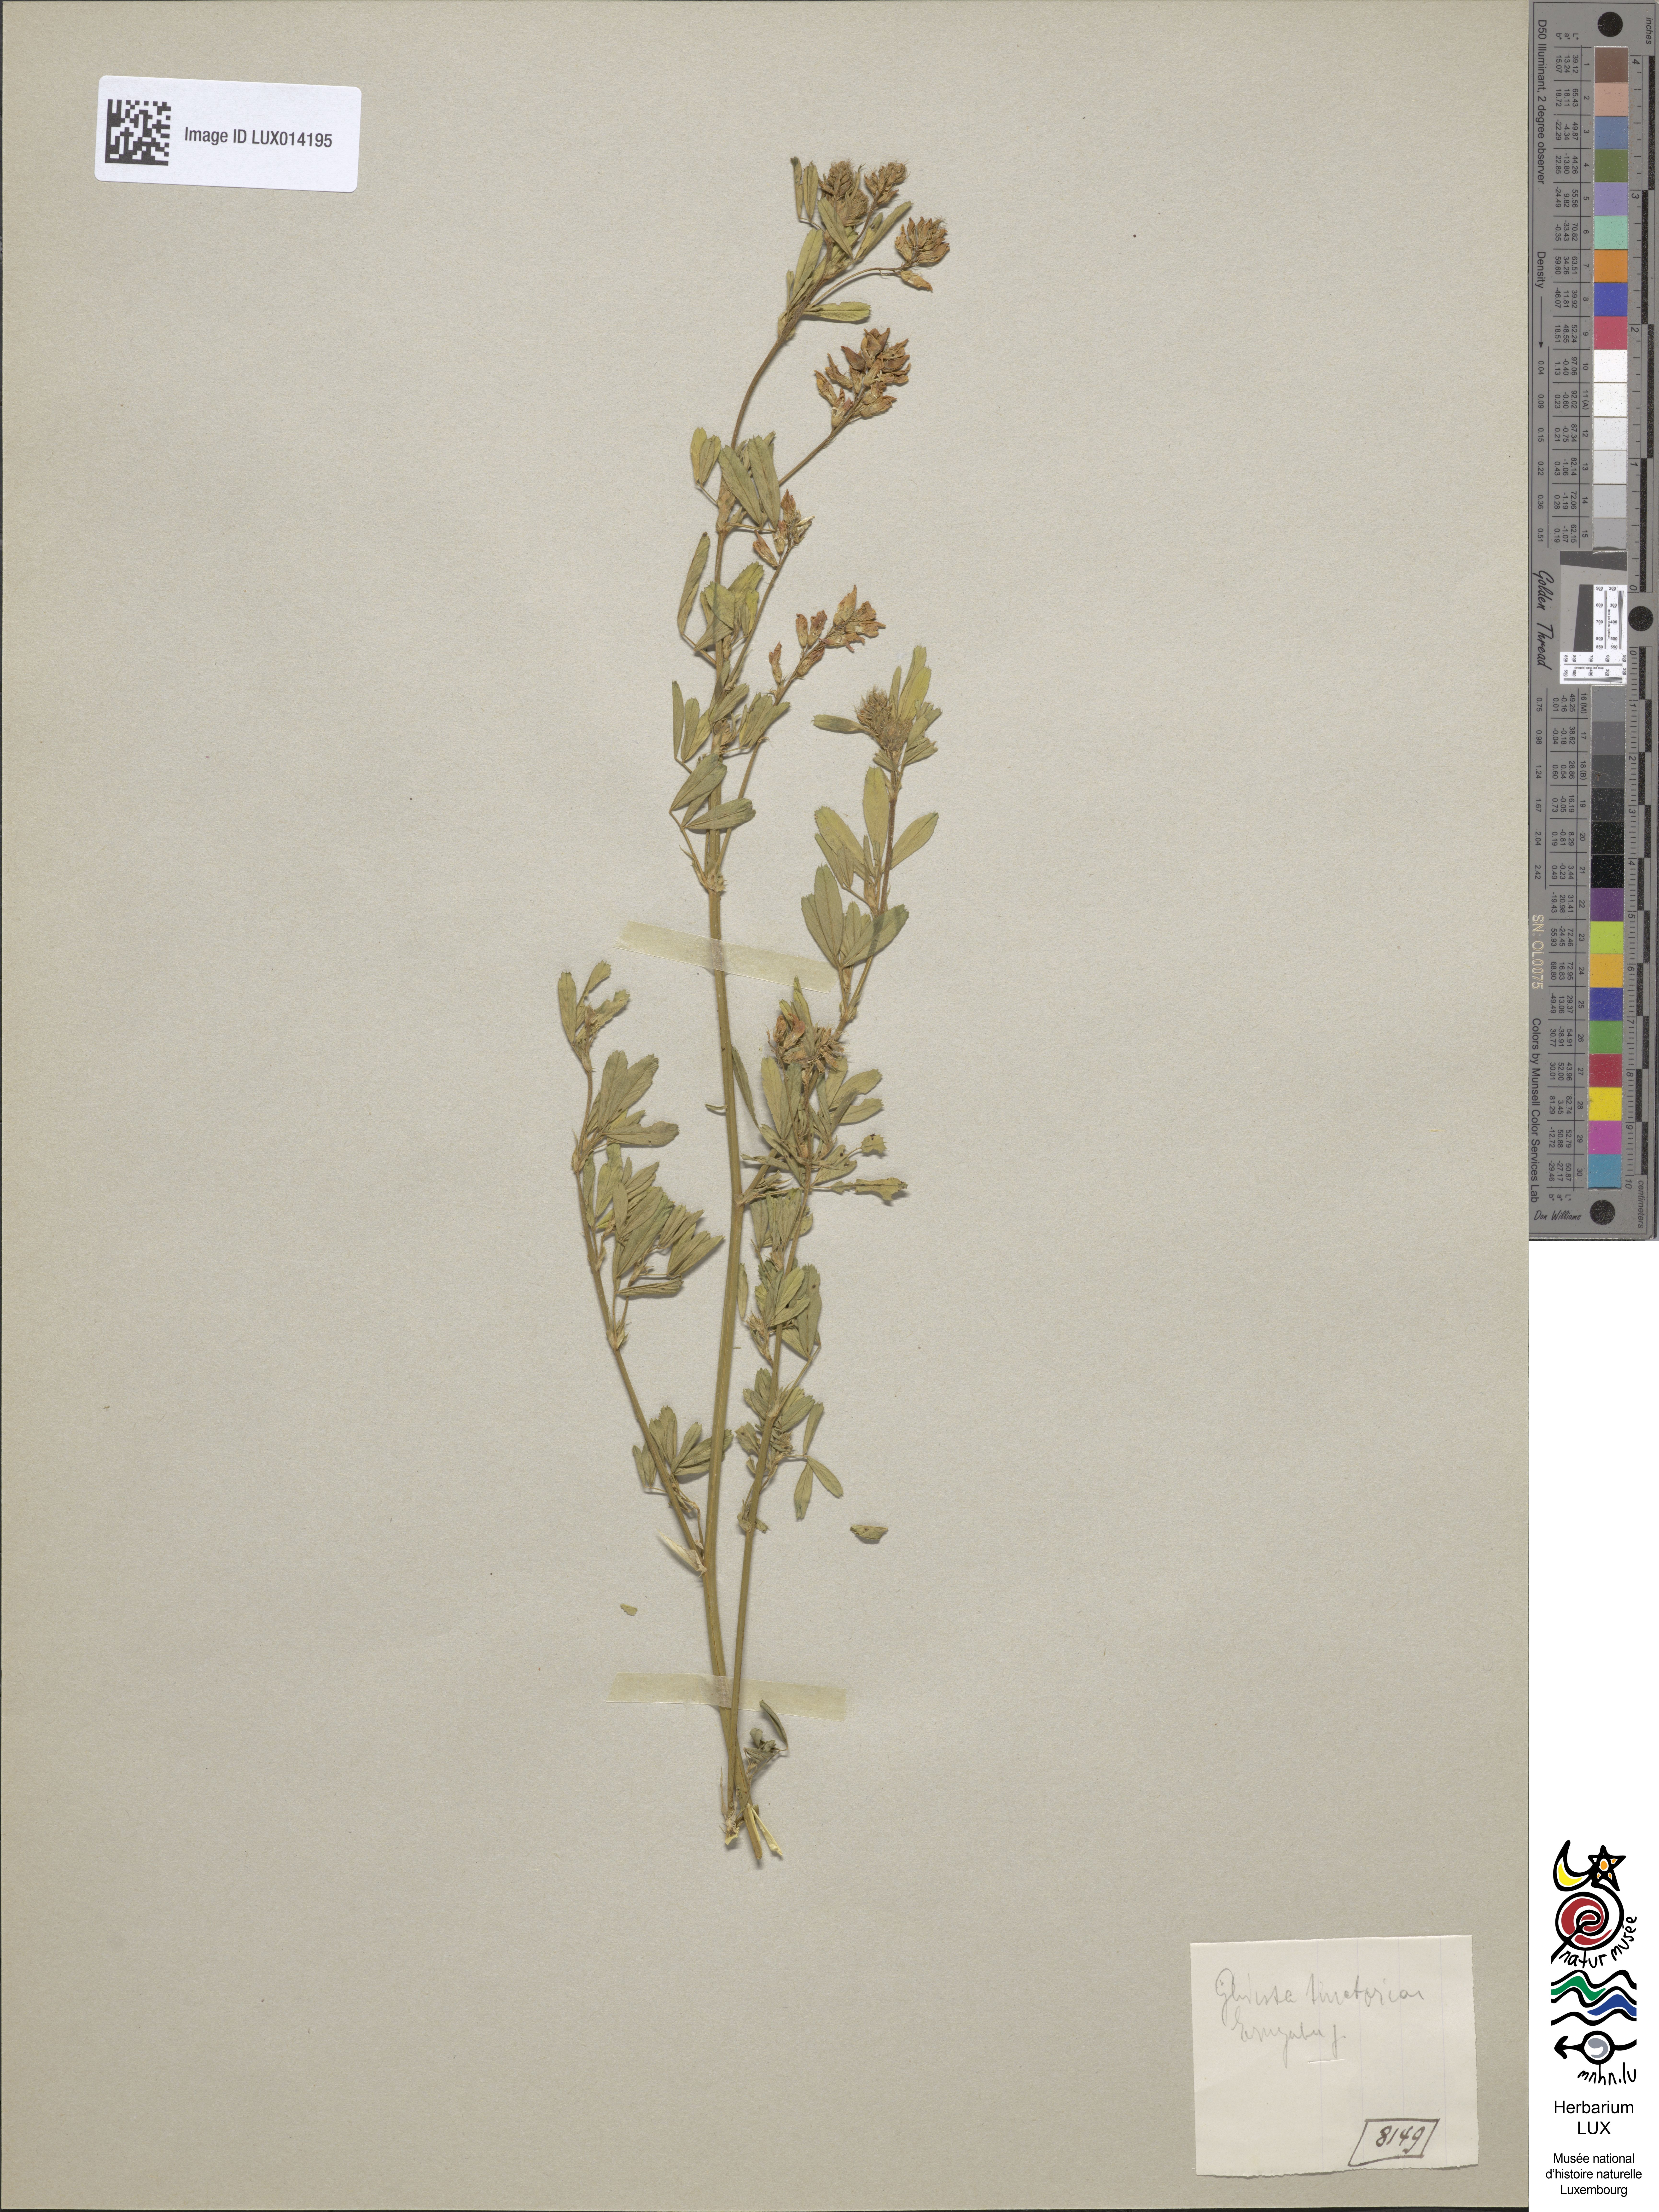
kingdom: Plantae
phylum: Tracheophyta
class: Magnoliopsida
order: Fabales
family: Fabaceae
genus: Genista
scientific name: Genista tinctoria
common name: Dyer's greenweed
